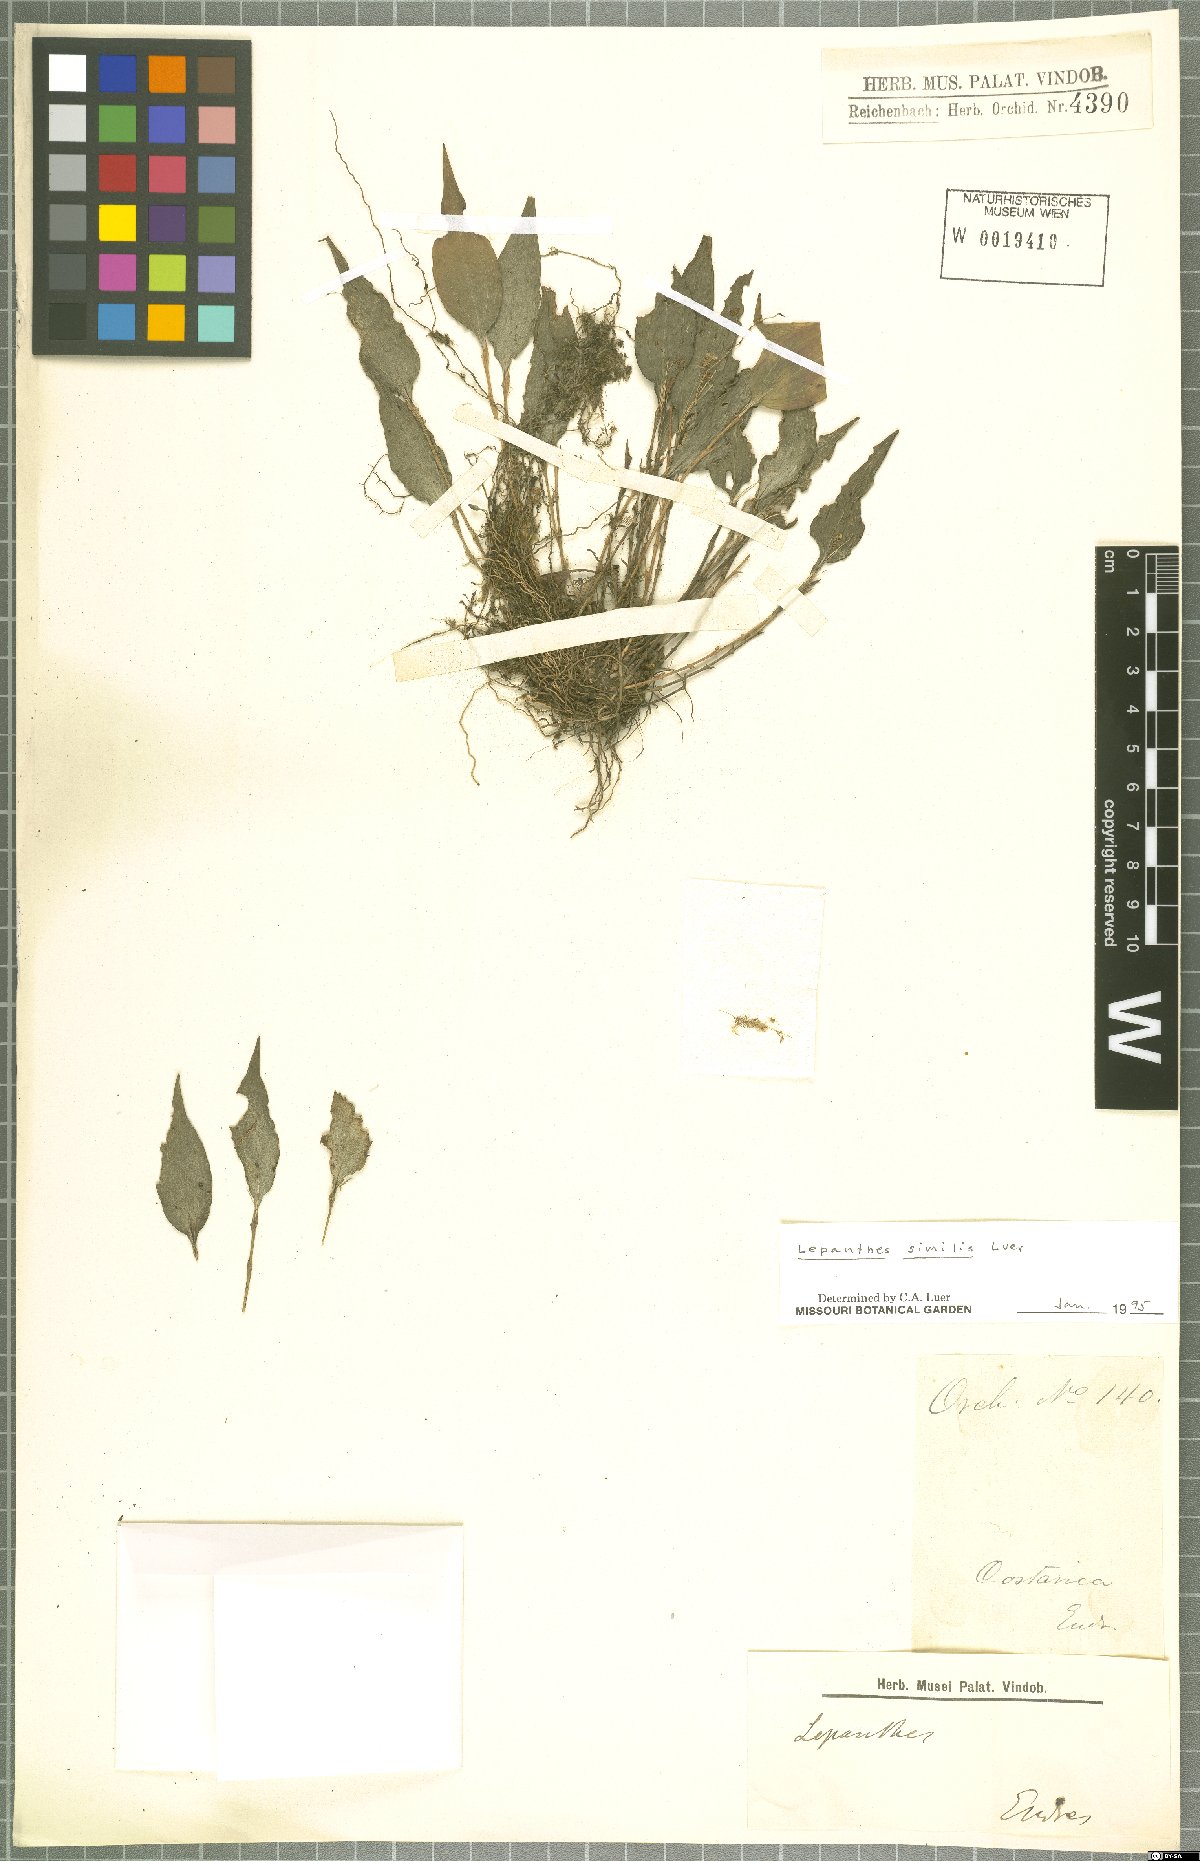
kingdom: Plantae
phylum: Tracheophyta
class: Liliopsida
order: Asparagales
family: Orchidaceae
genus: Lepanthes
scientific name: Lepanthes similis
